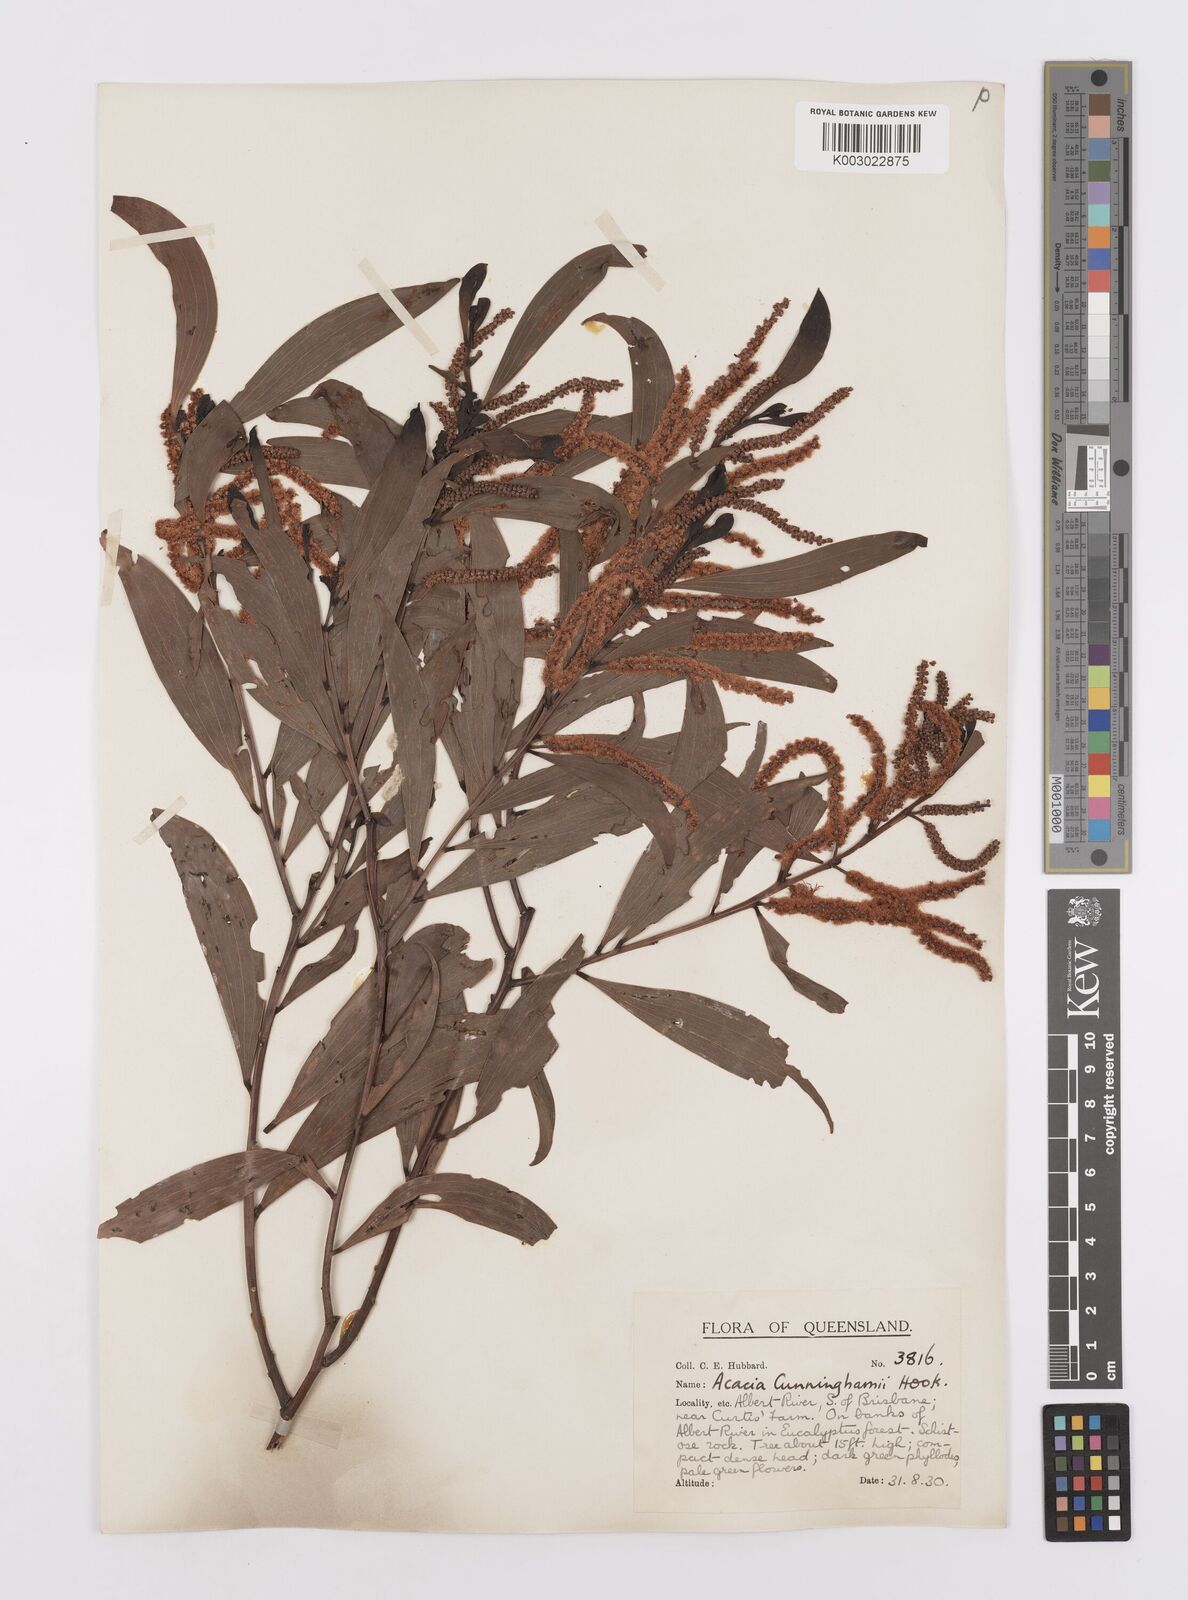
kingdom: Plantae
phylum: Tracheophyta
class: Magnoliopsida
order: Fabales
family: Fabaceae
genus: Acacia
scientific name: Acacia longispicata
